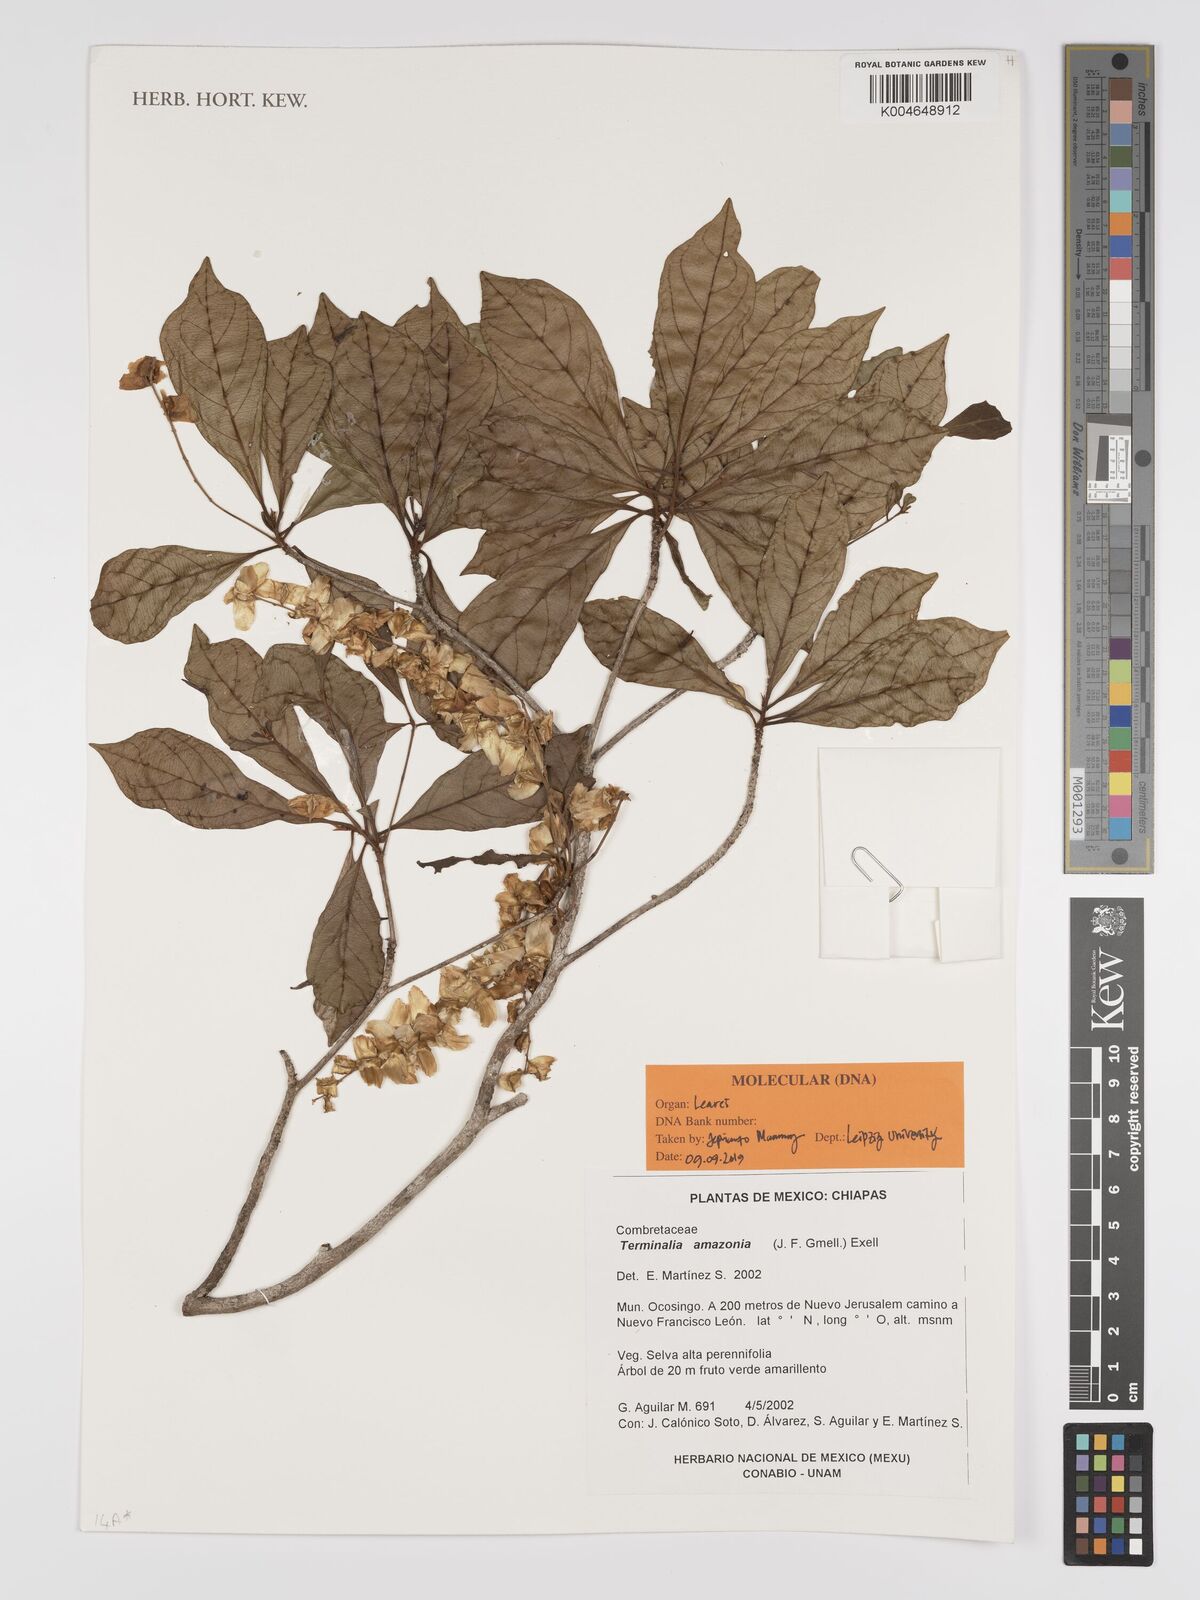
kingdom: Plantae
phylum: Tracheophyta
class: Magnoliopsida
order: Myrtales
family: Combretaceae
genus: Terminalia
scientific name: Terminalia amazonica
